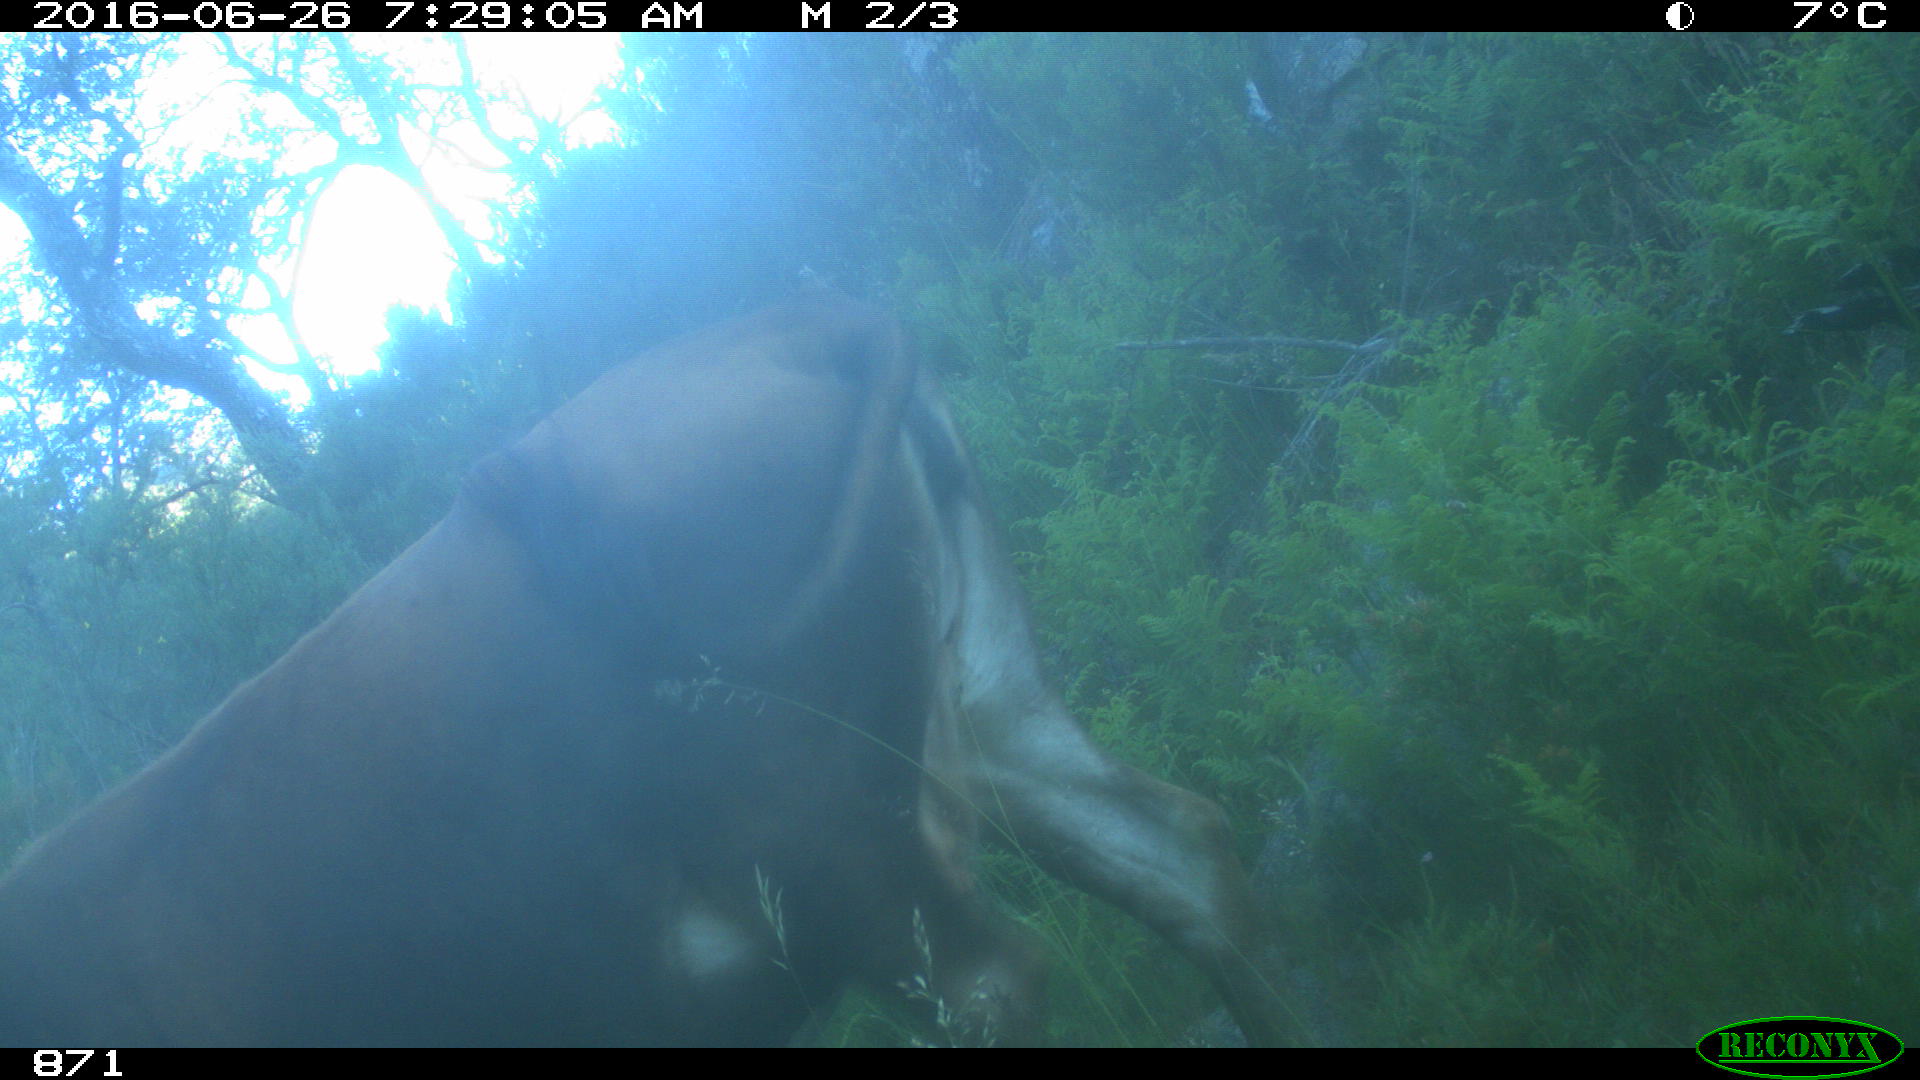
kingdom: Animalia
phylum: Chordata
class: Mammalia
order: Artiodactyla
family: Bovidae
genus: Bos
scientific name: Bos taurus
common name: Domesticated cattle
